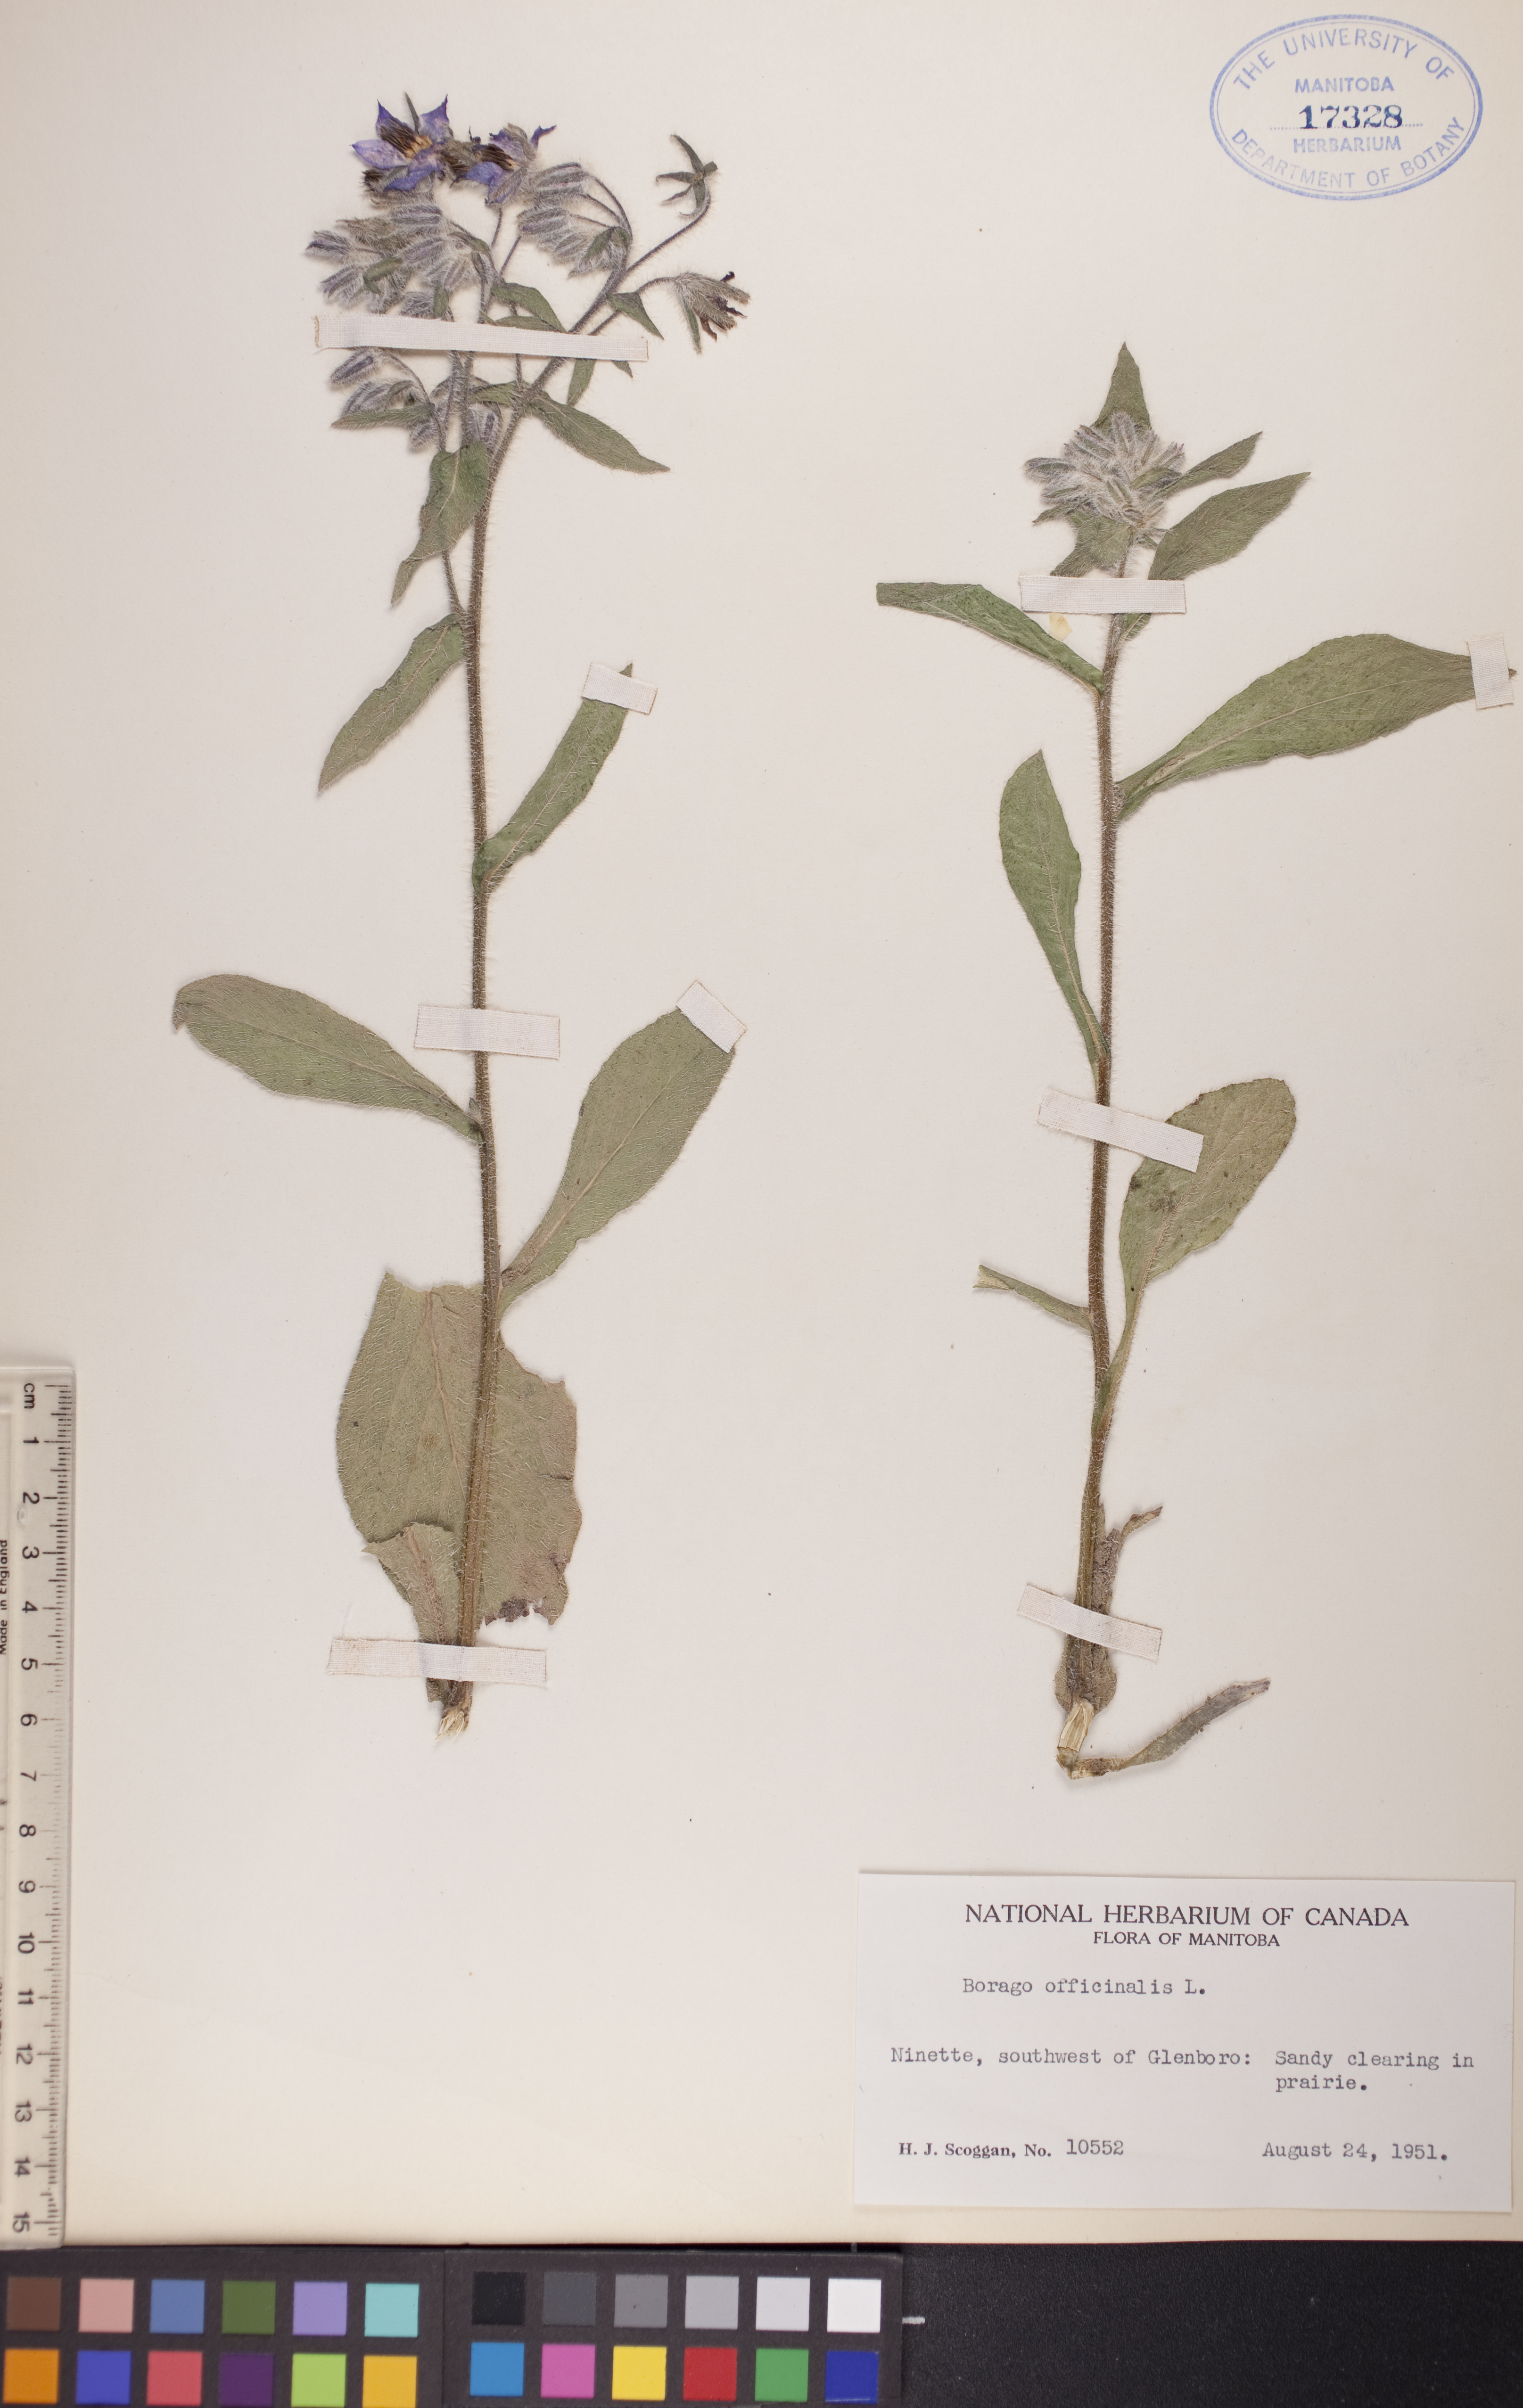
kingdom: Plantae
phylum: Tracheophyta
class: Magnoliopsida
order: Boraginales
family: Boraginaceae
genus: Borago
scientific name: Borago officinalis
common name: Borage
